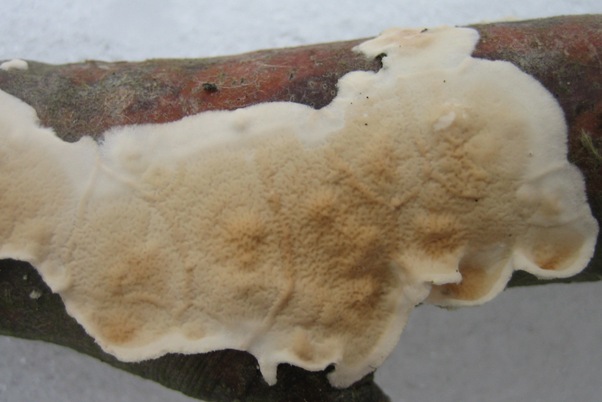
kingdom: Fungi
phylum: Basidiomycota
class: Agaricomycetes
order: Polyporales
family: Irpicaceae
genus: Byssomerulius
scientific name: Byssomerulius corium
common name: læder-åresvamp
